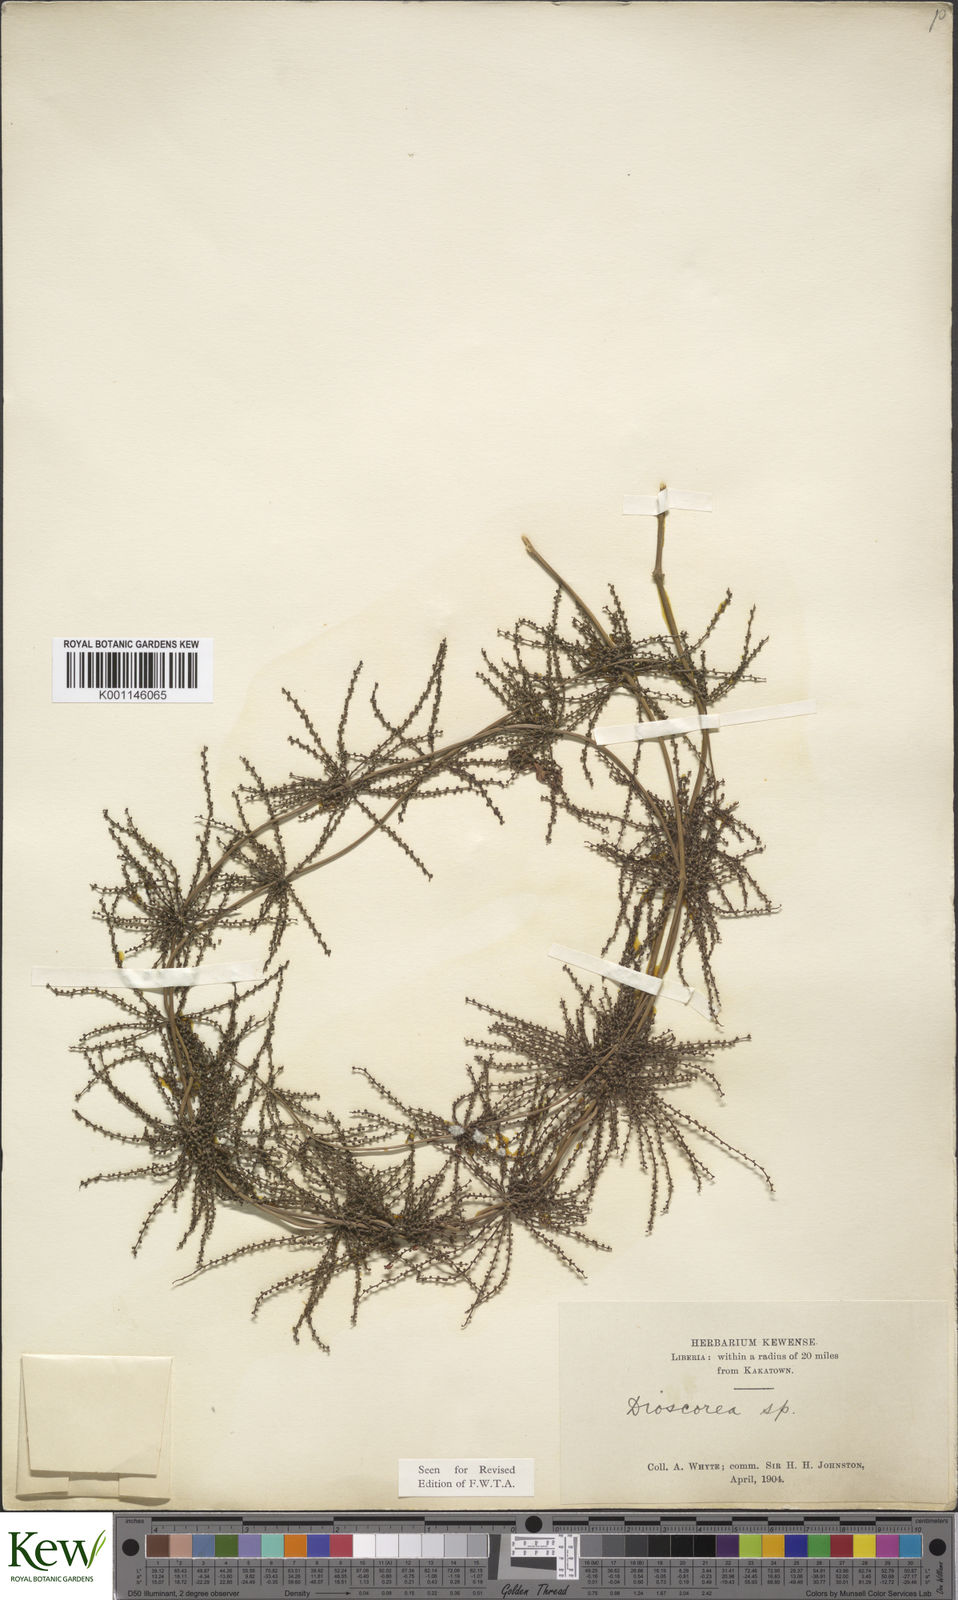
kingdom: Plantae
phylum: Tracheophyta
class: Liliopsida
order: Dioscoreales
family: Dioscoreaceae
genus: Dioscorea
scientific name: Dioscorea smilacifolia
